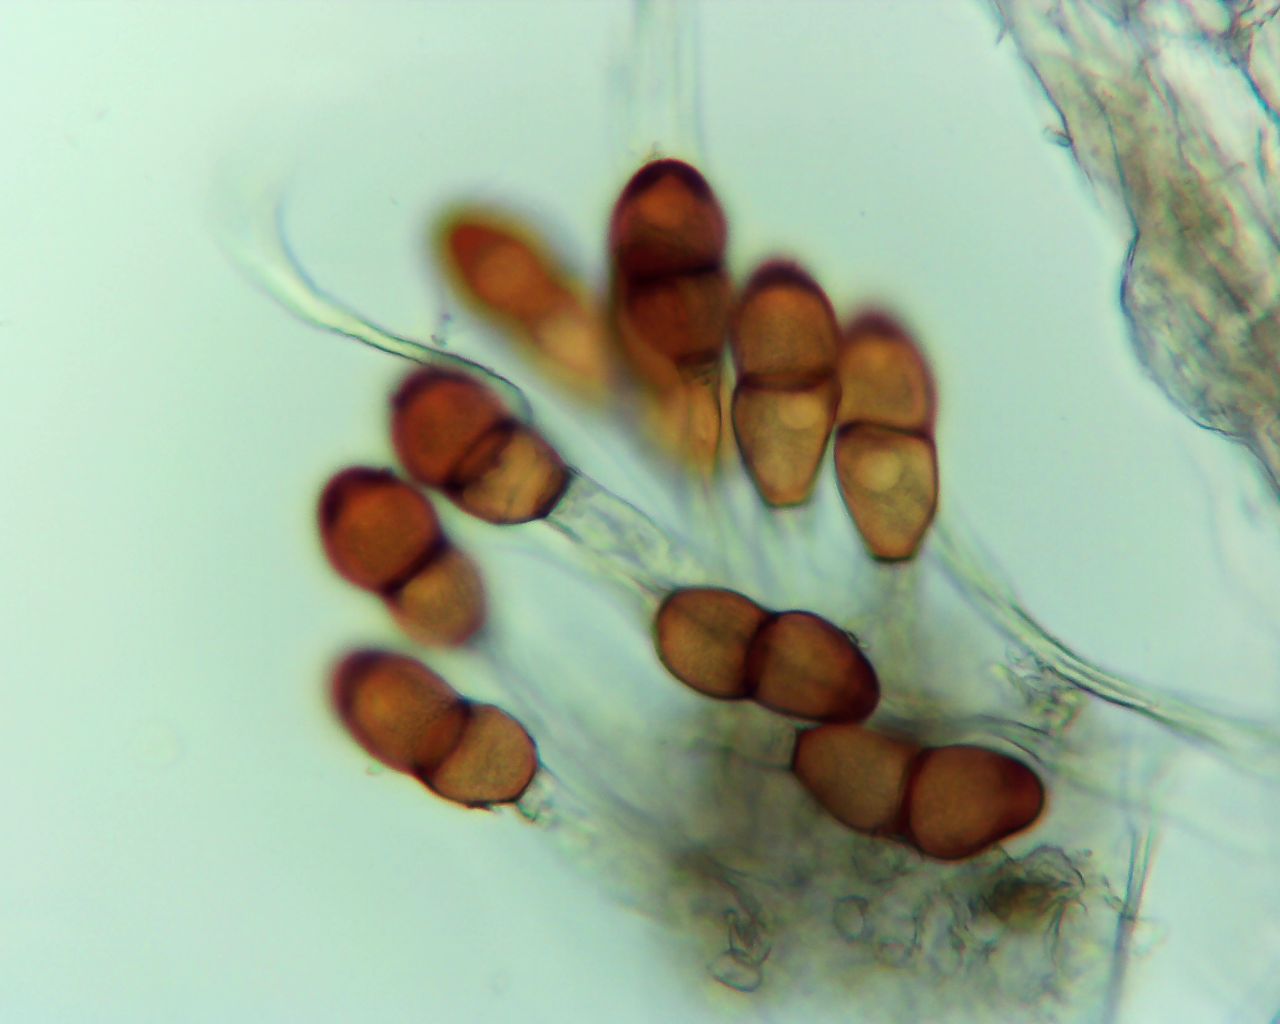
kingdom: Fungi
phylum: Basidiomycota
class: Pucciniomycetes
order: Pucciniales
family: Pucciniaceae
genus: Puccinia
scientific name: Puccinia tanaceti
